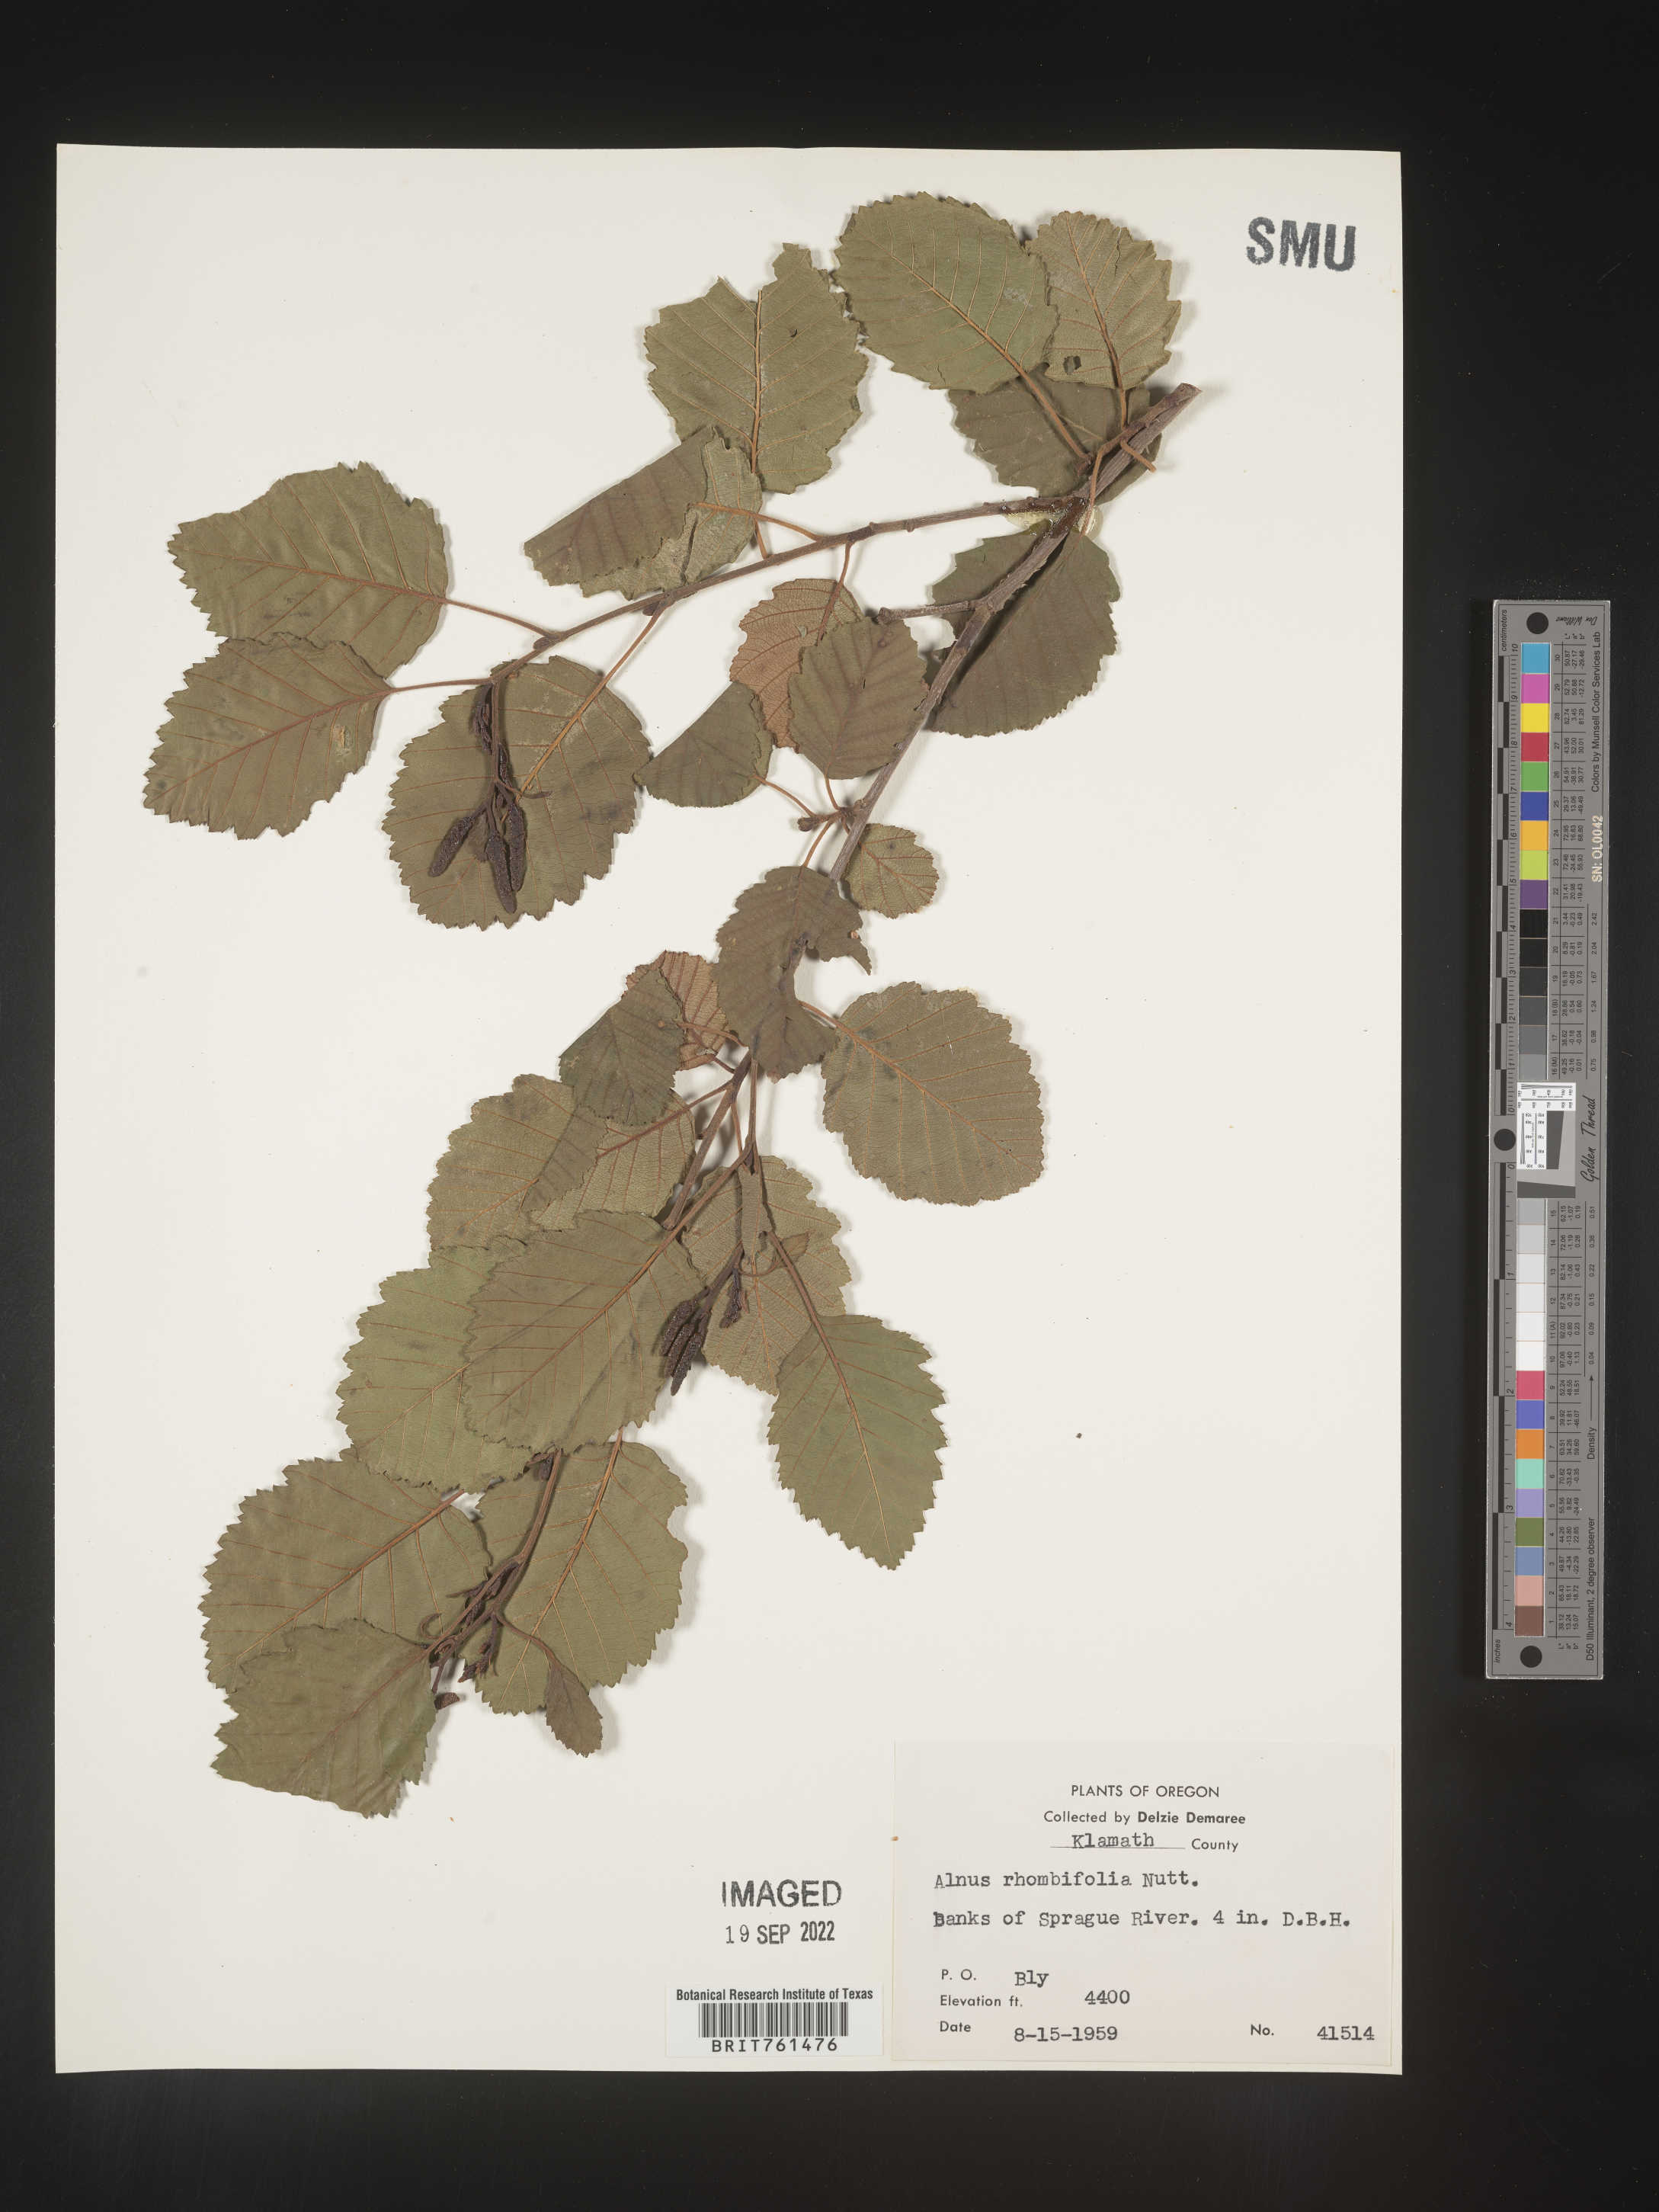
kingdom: Plantae
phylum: Tracheophyta
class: Magnoliopsida
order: Fagales
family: Betulaceae
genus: Alnus
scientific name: Alnus rhombifolia
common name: California alder
